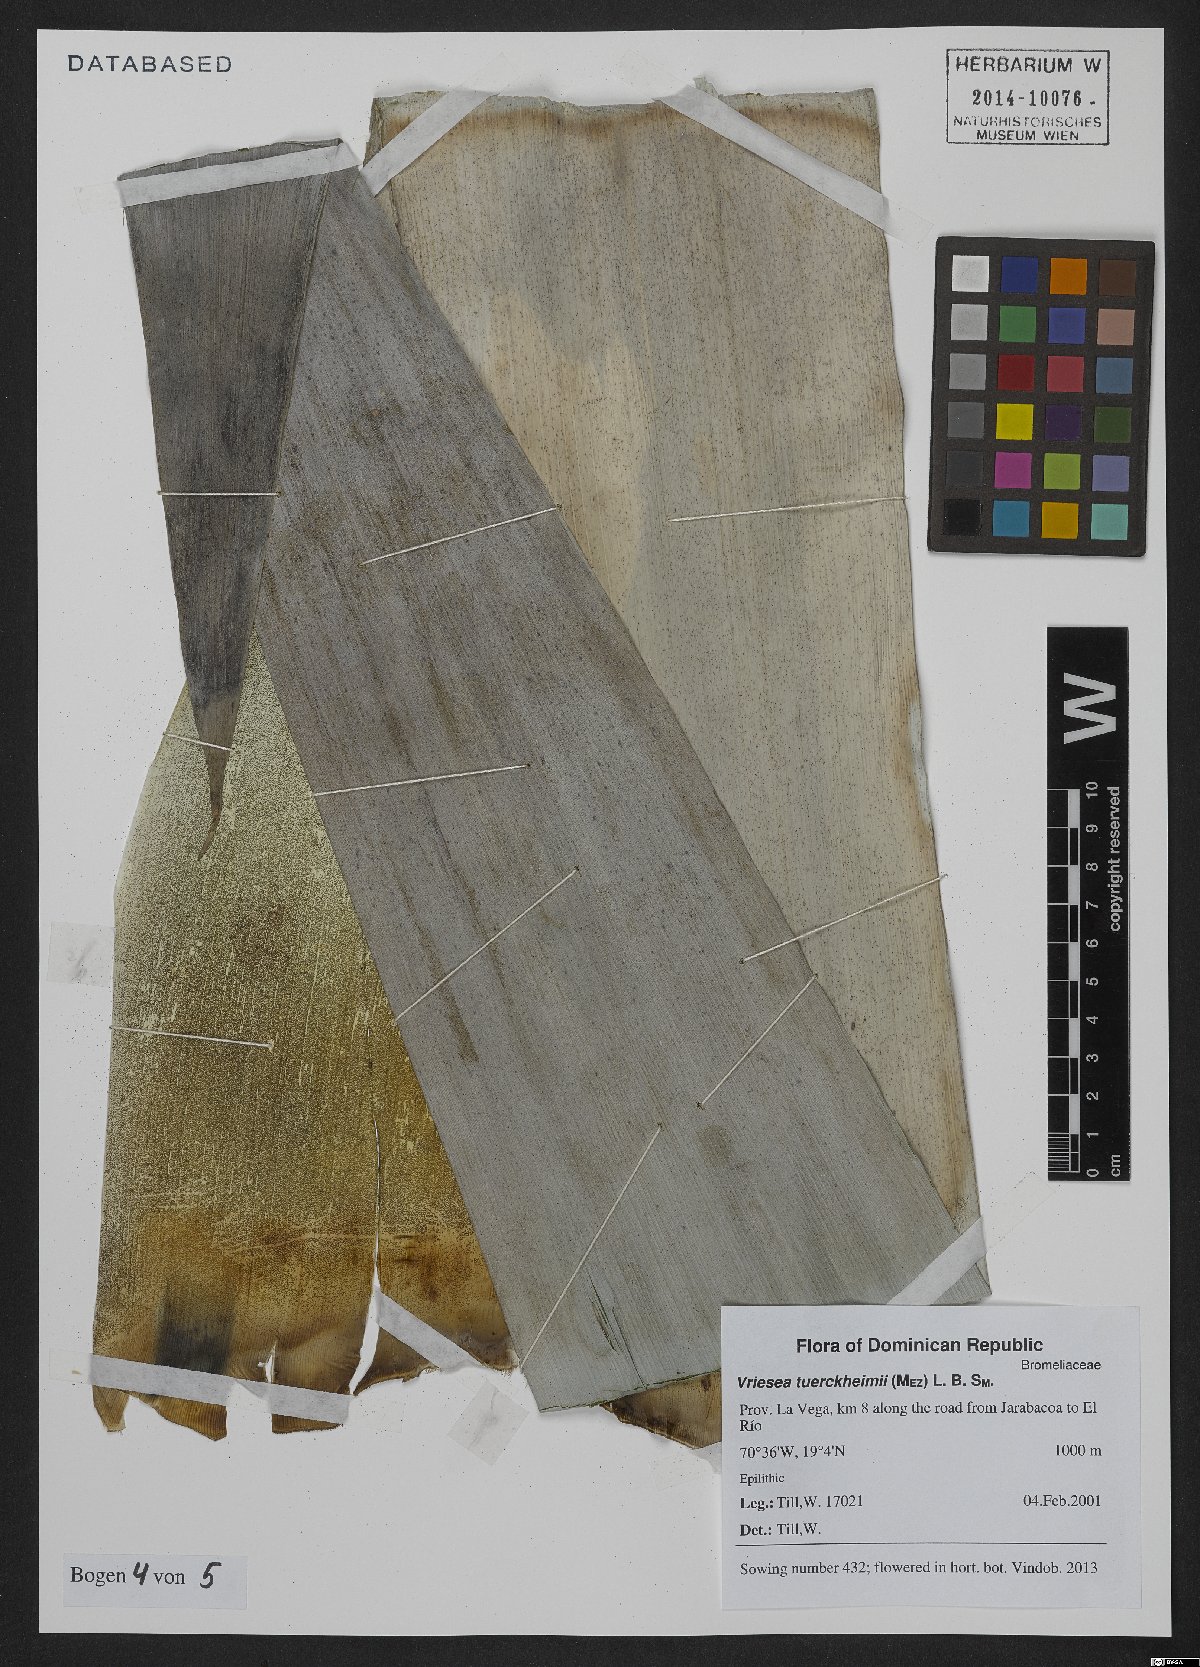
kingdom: Plantae
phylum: Tracheophyta
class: Liliopsida
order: Poales
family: Bromeliaceae
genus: Zizkaea
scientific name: Zizkaea tuerckheimii
